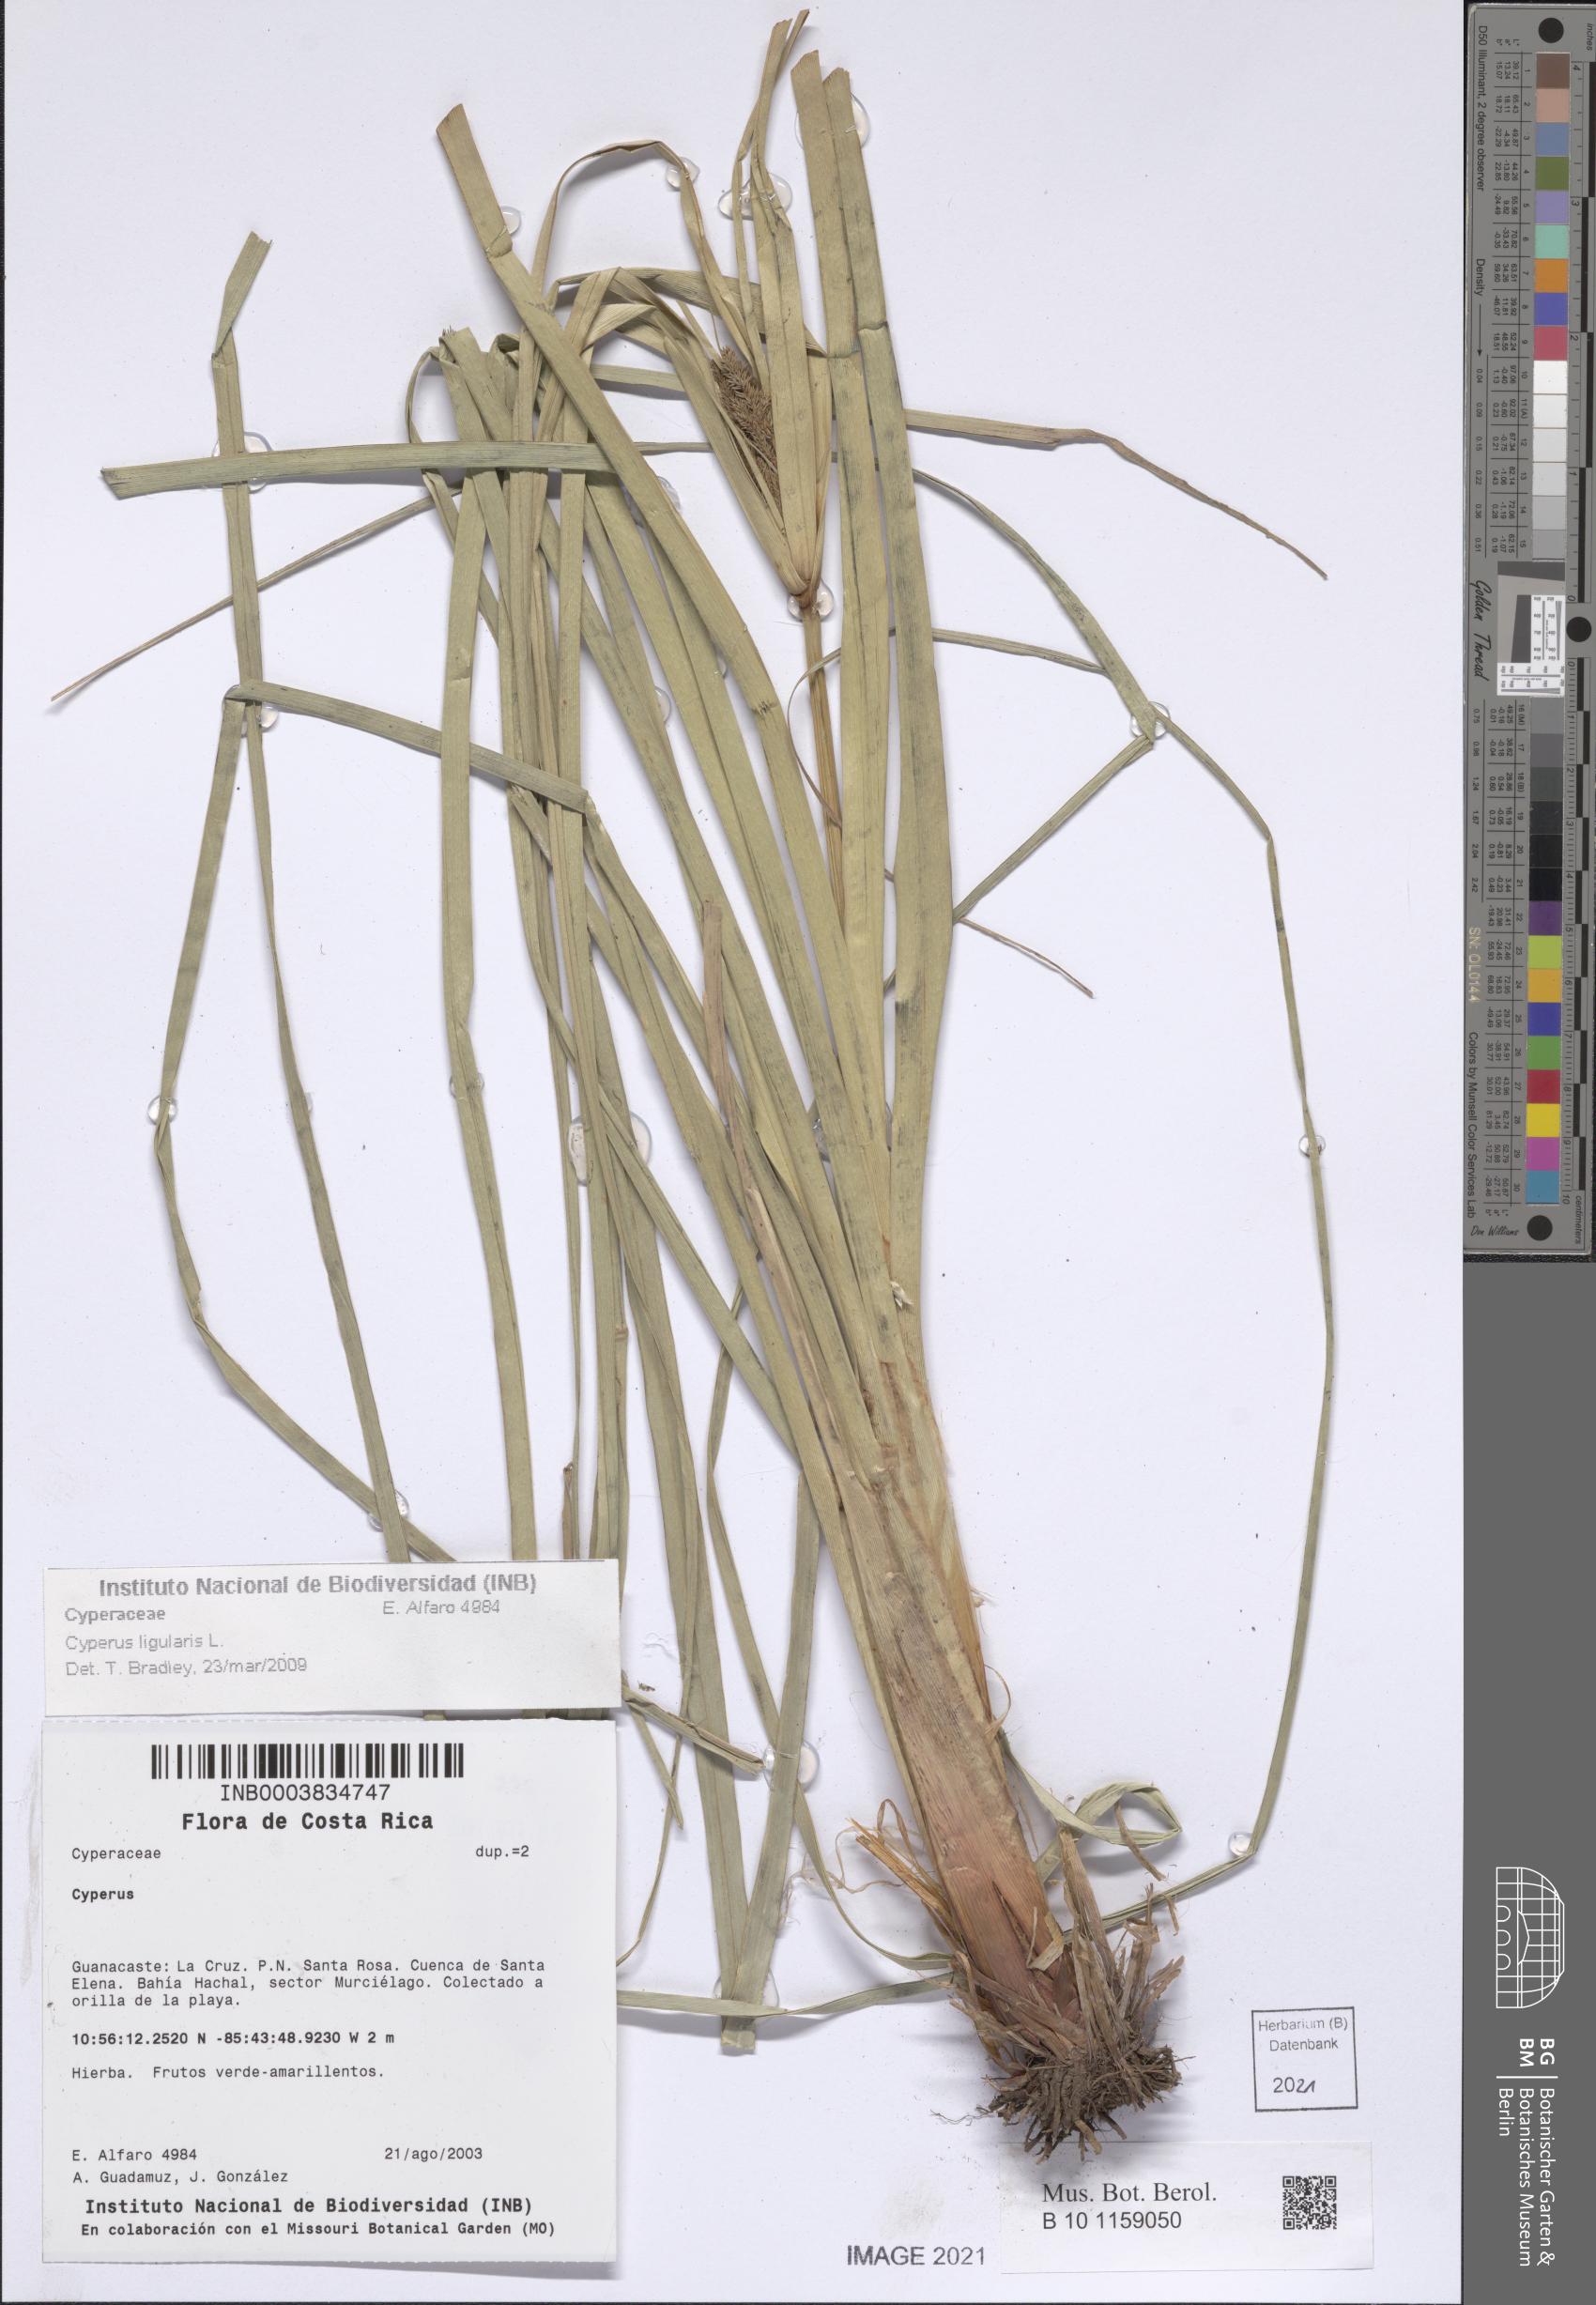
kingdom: Plantae
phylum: Tracheophyta
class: Liliopsida
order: Poales
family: Cyperaceae
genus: Cyperus
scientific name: Cyperus ligularis
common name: Swamp flat sedge
